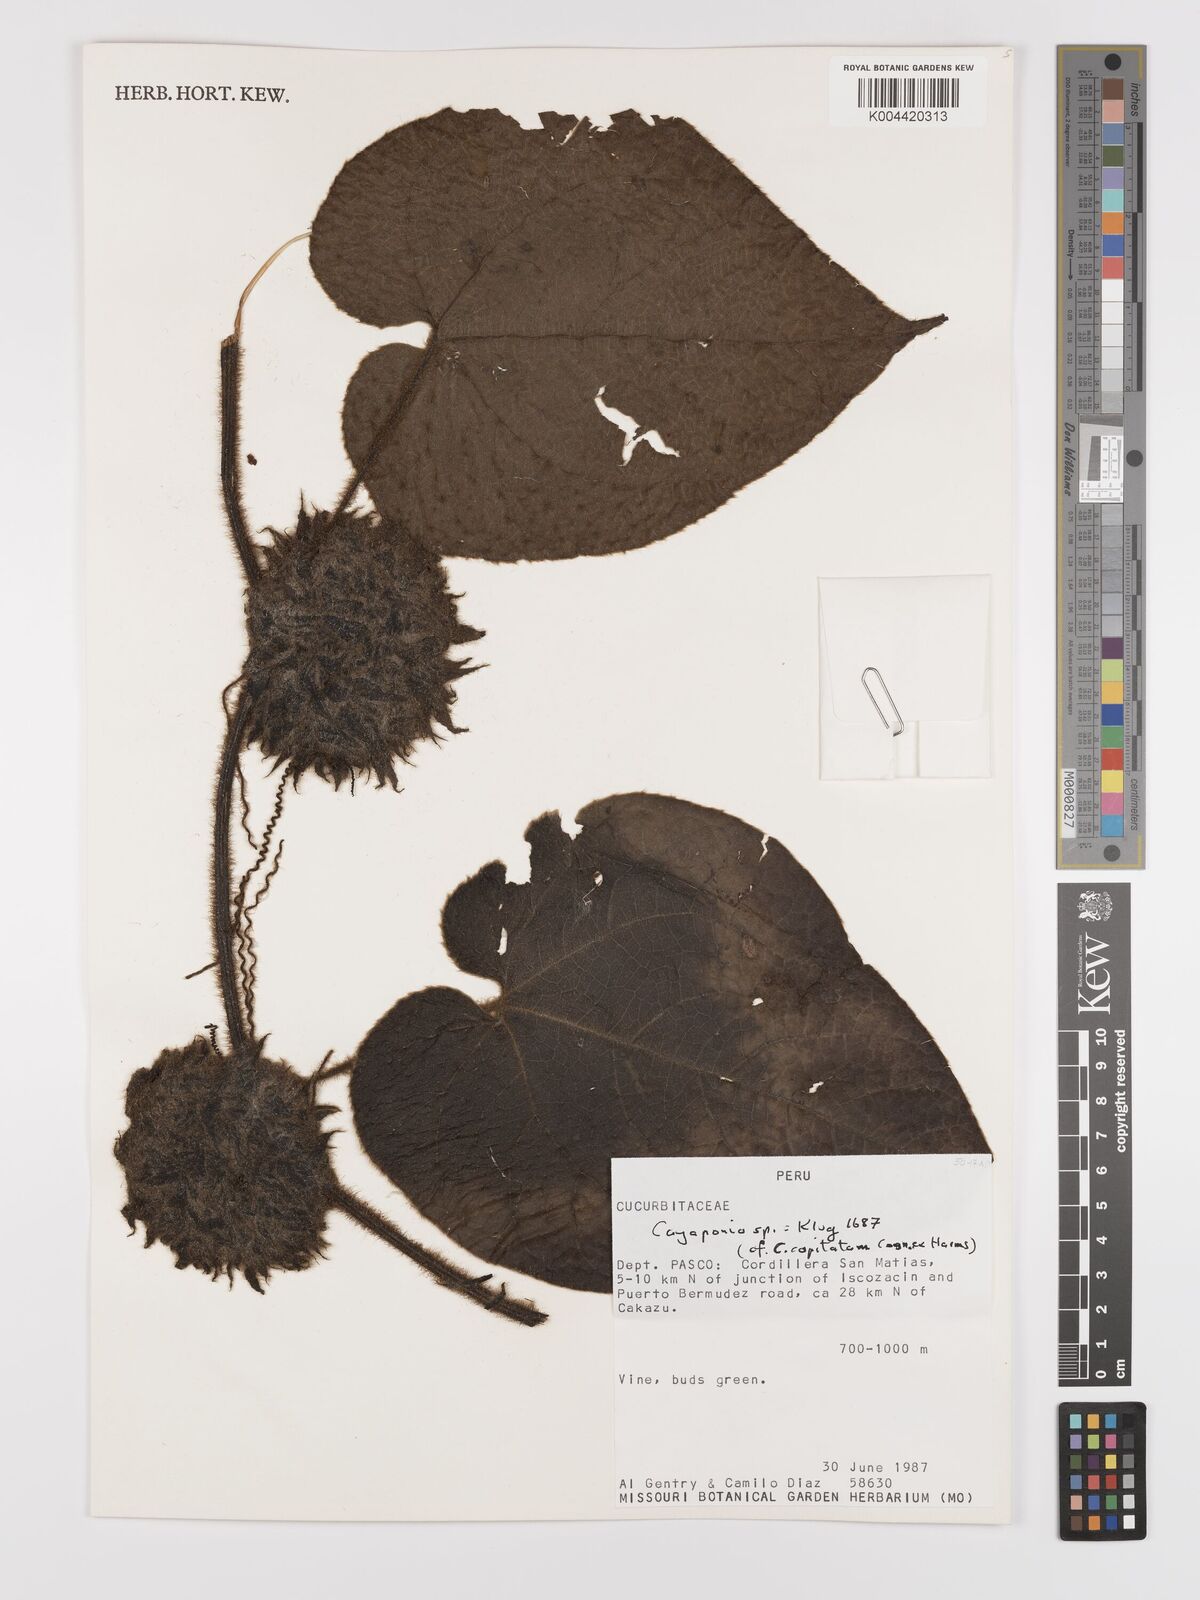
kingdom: Plantae
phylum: Tracheophyta
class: Magnoliopsida
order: Cucurbitales
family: Cucurbitaceae
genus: Cayaponia
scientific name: Cayaponia capitata
